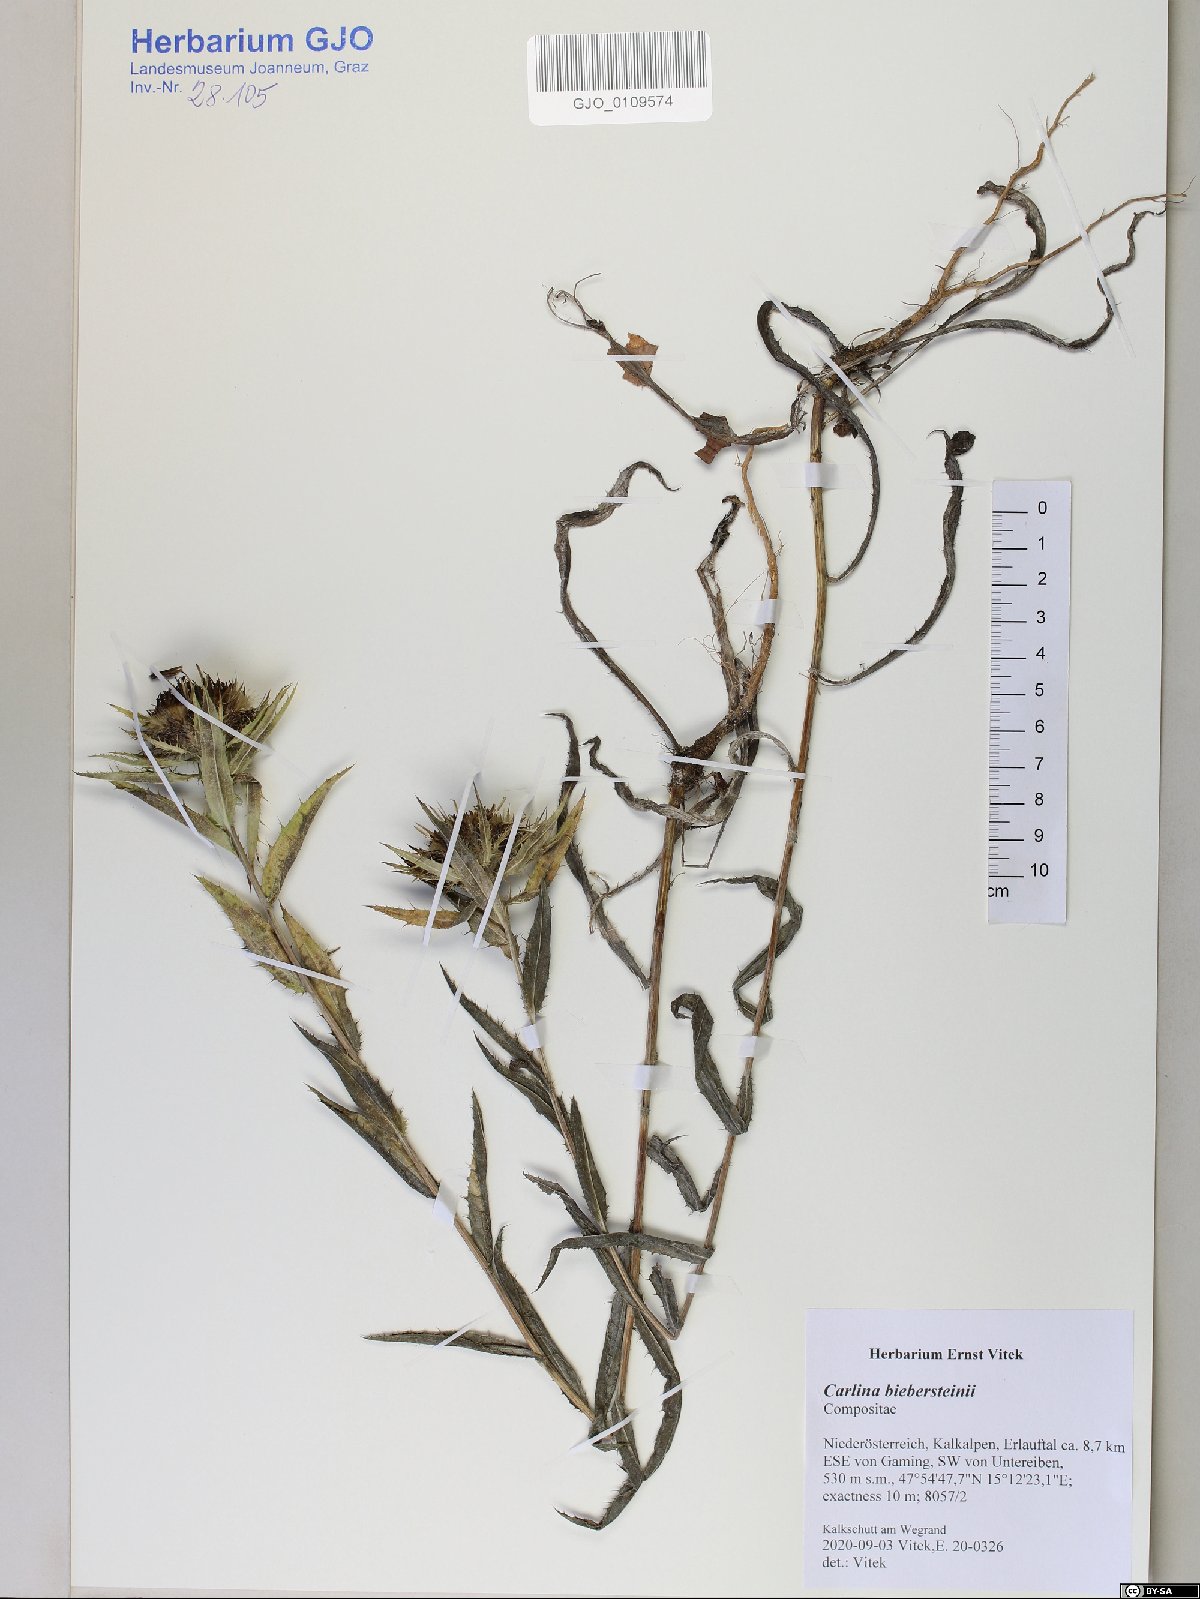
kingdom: Plantae
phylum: Tracheophyta
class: Magnoliopsida
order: Asterales
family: Asteraceae
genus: Carlina
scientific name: Carlina biebersteinii
